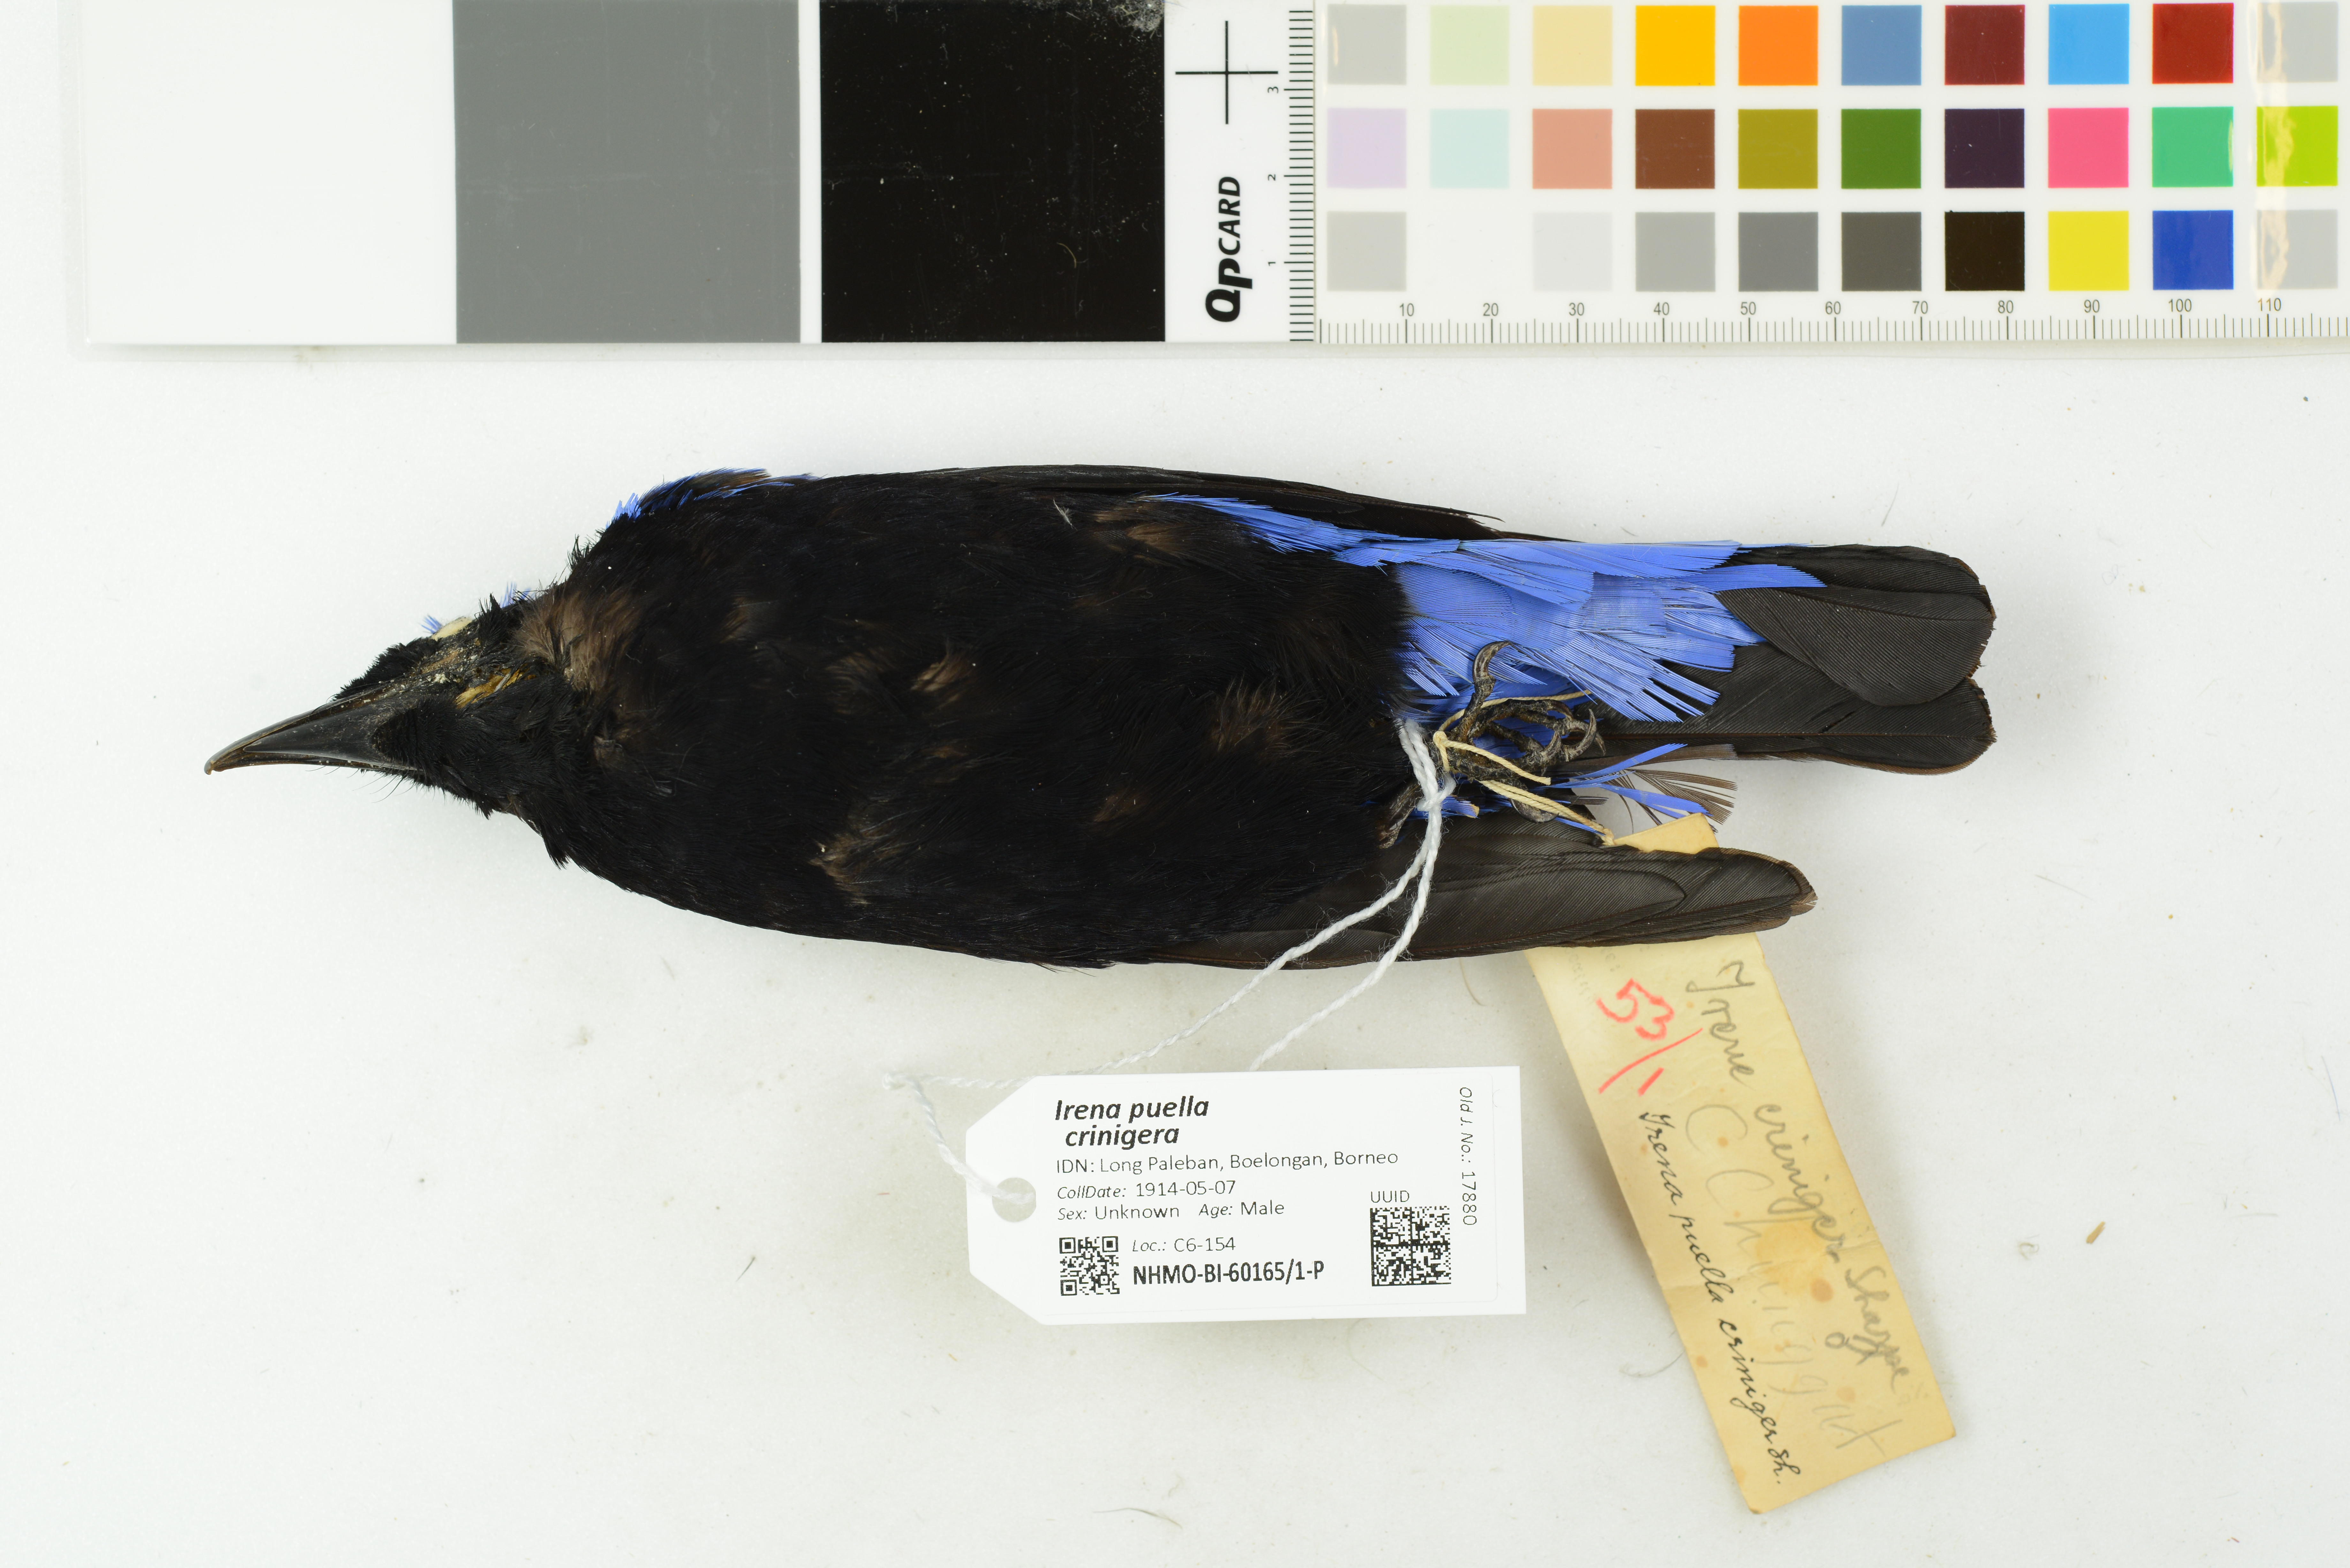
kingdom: Animalia
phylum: Chordata
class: Aves
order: Passeriformes
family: Irenidae
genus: Irena
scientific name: Irena puella
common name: Asian fairy-bluebird
